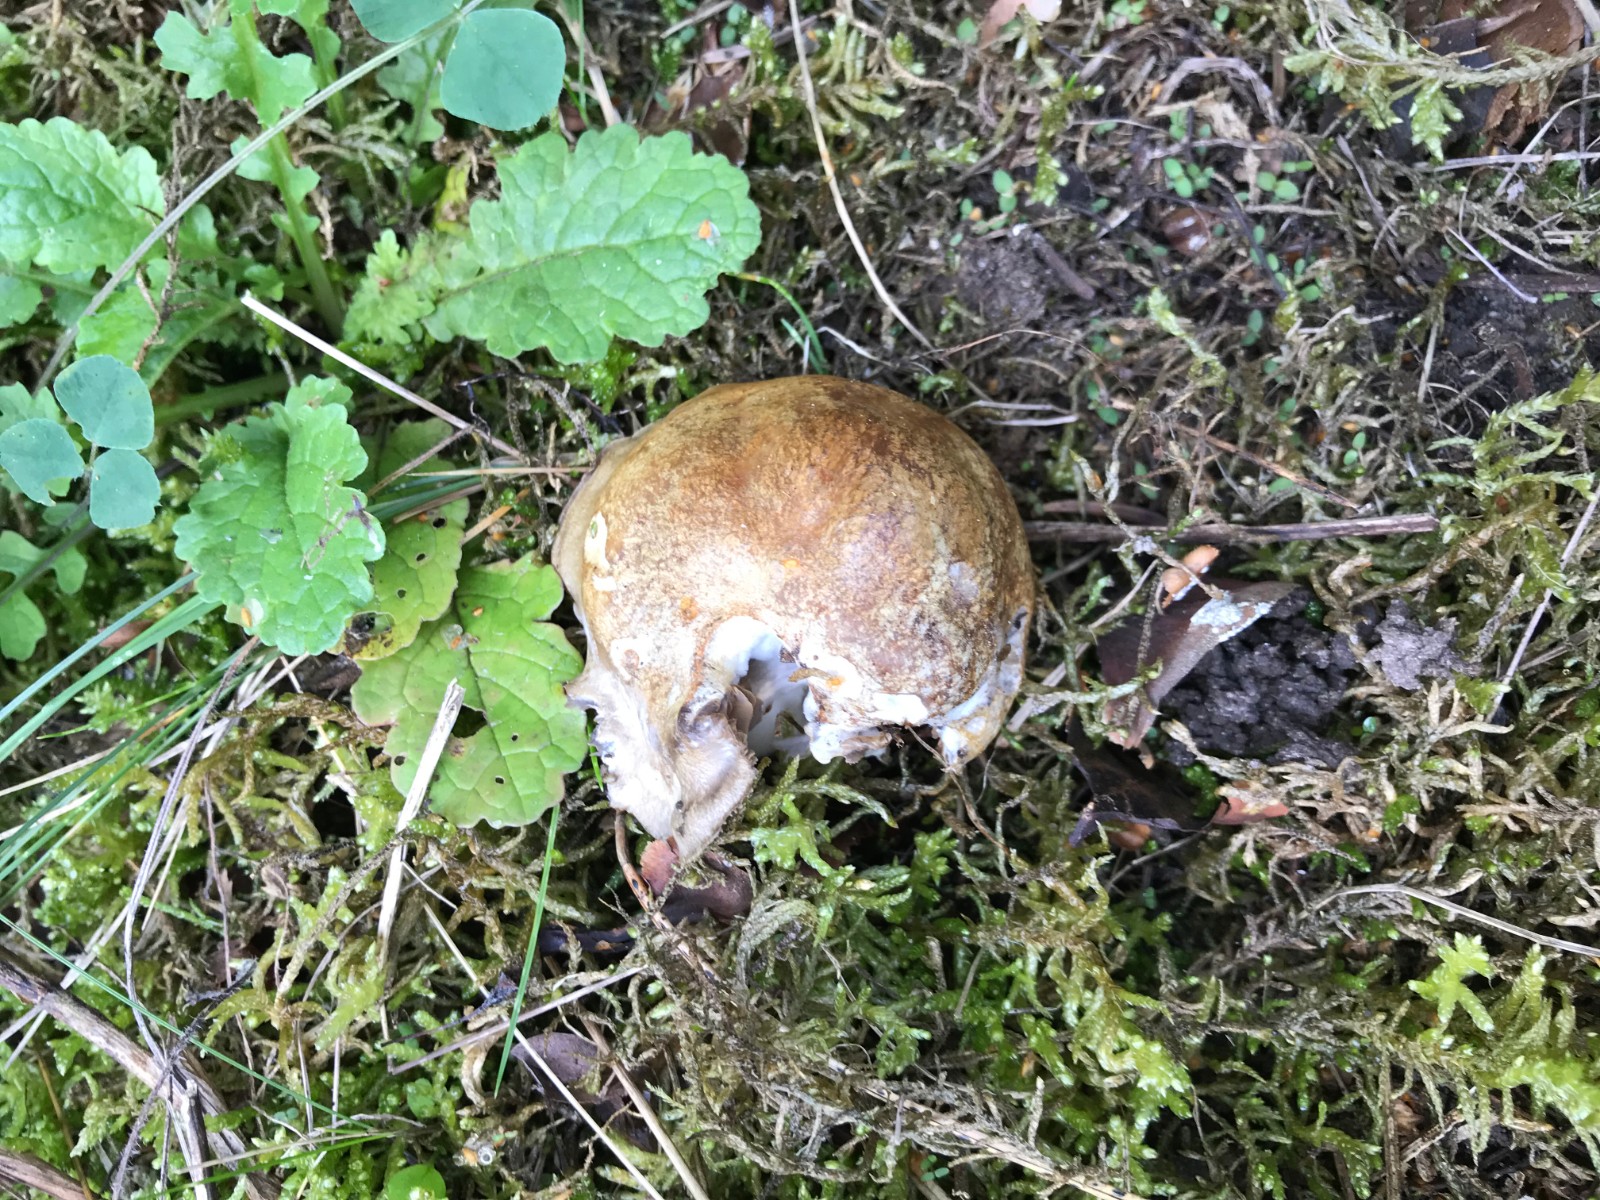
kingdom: Fungi
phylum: Basidiomycota
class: Agaricomycetes
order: Agaricales
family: Cortinariaceae
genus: Cortinarius
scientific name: Cortinarius
